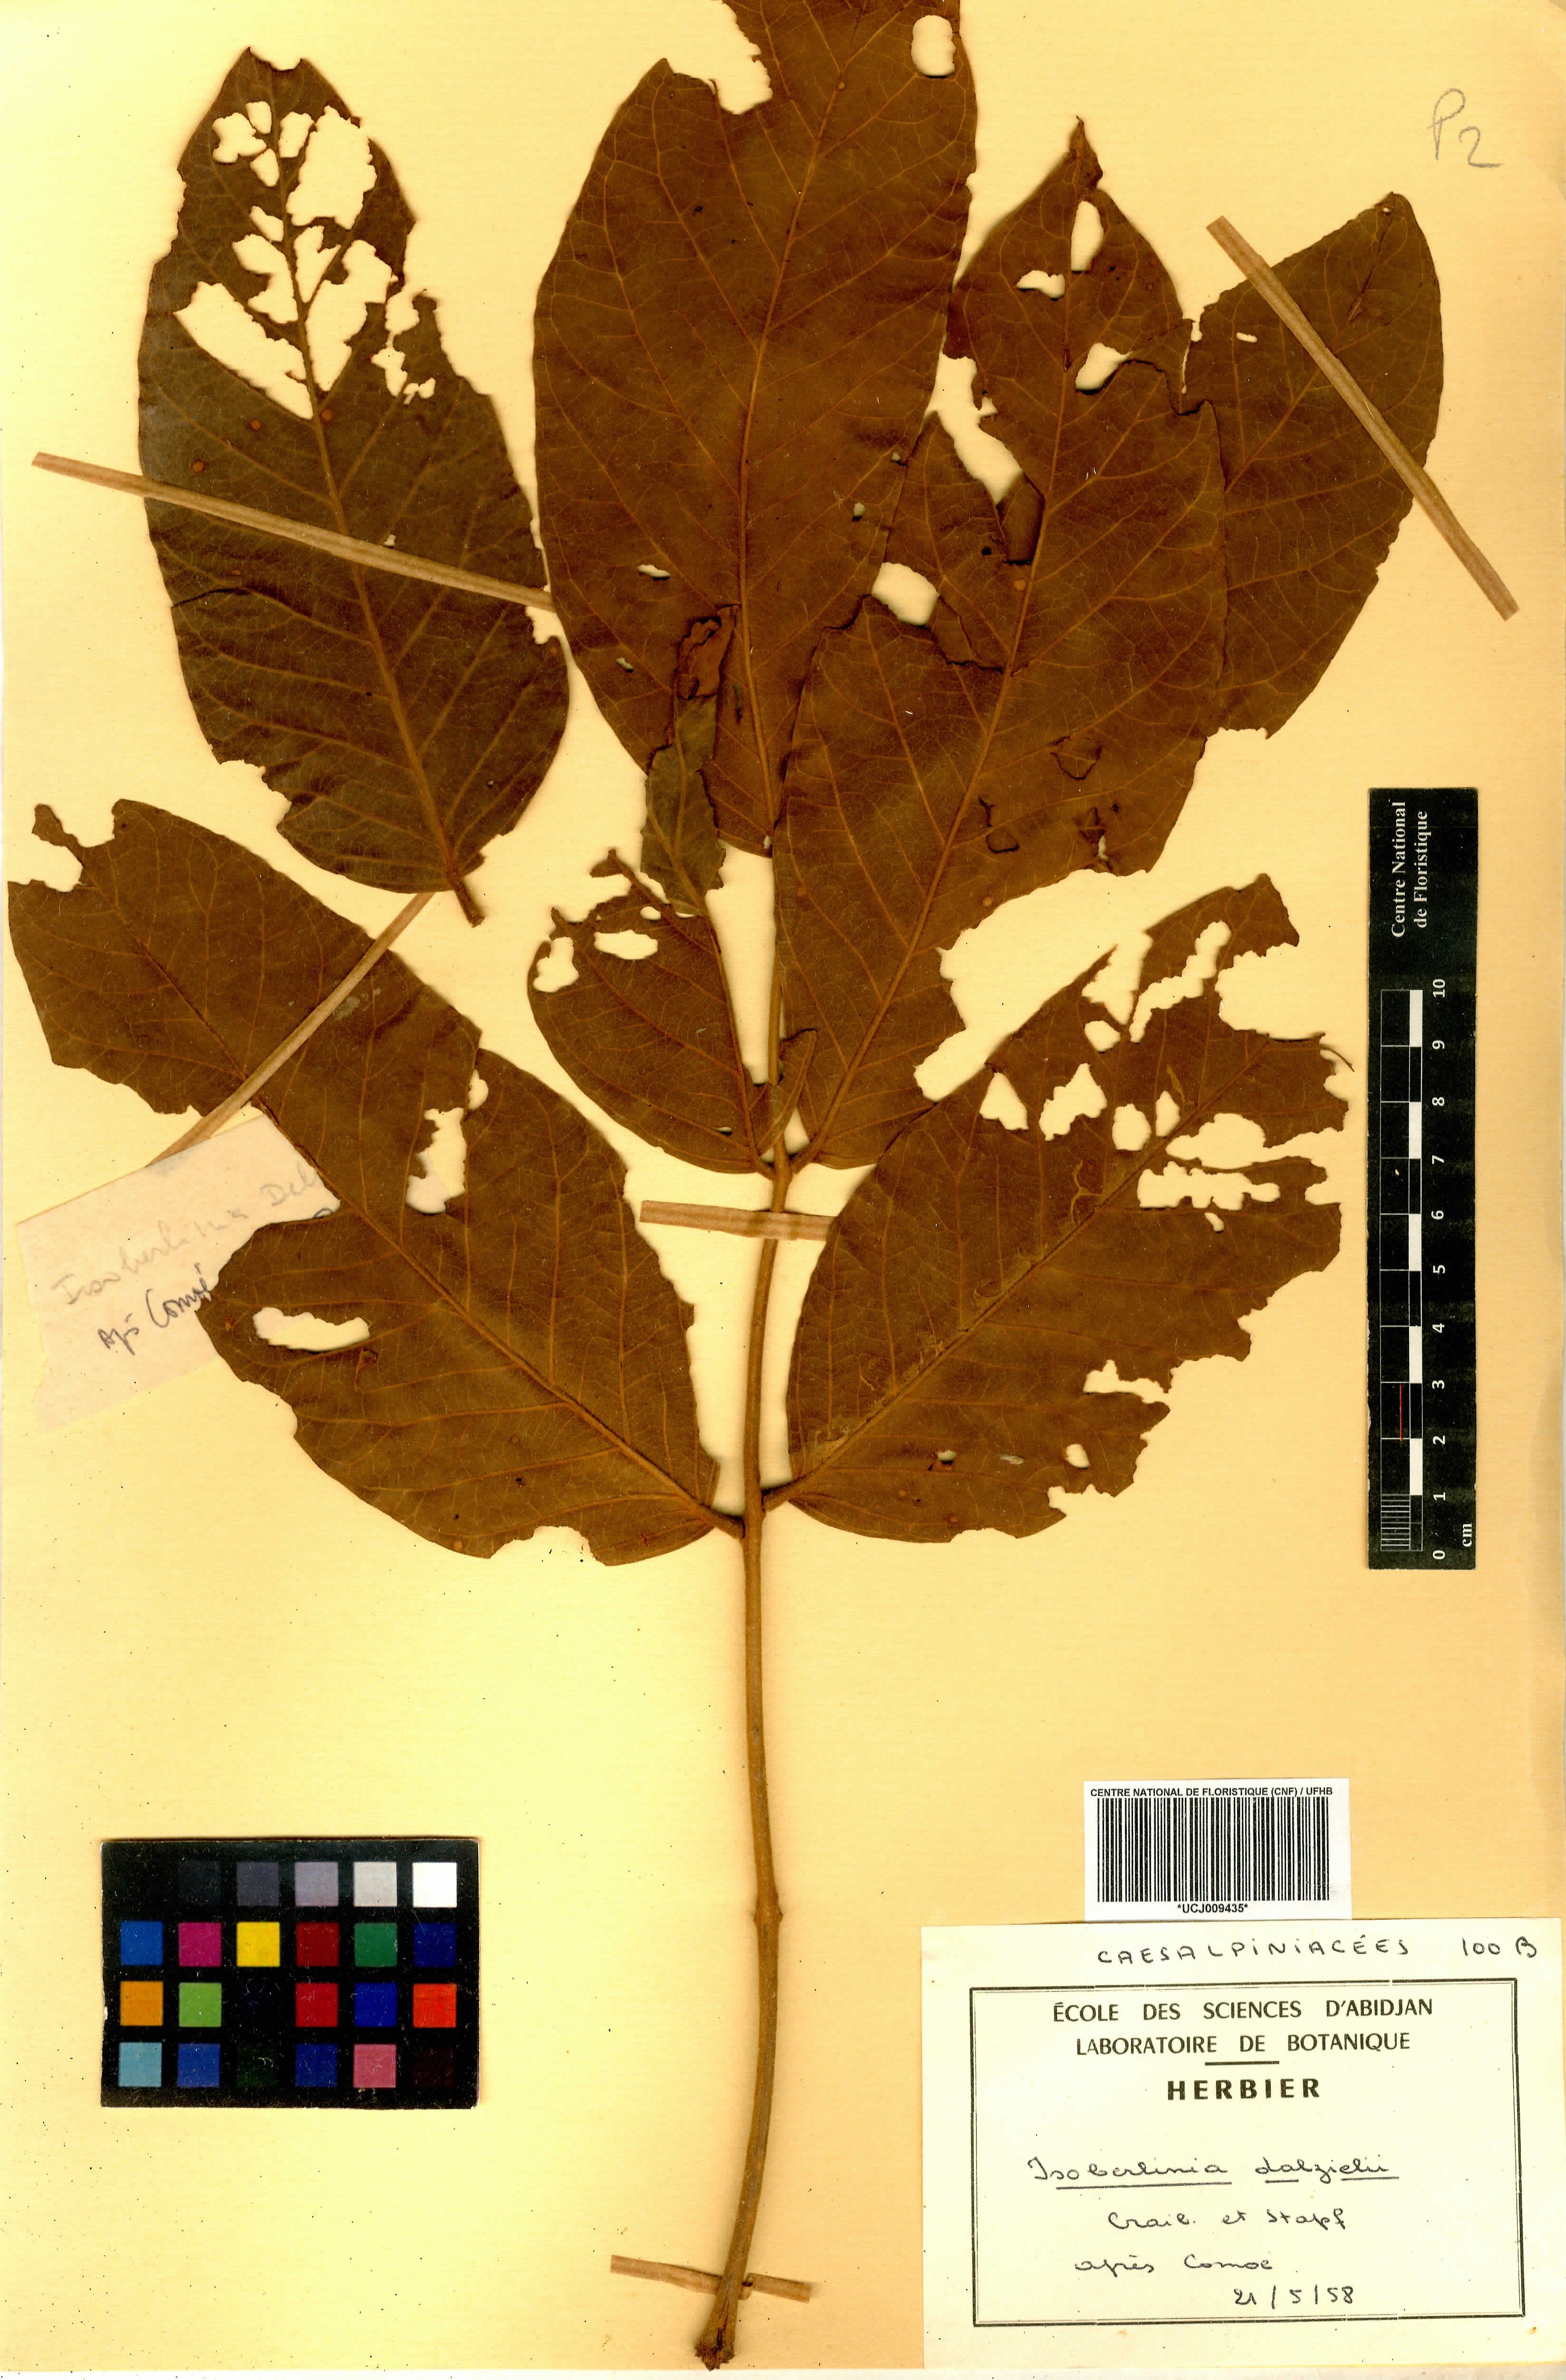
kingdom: Plantae
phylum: Tracheophyta
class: Magnoliopsida
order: Fabales
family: Fabaceae
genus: Isoberlinia
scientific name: Isoberlinia tomentosa
